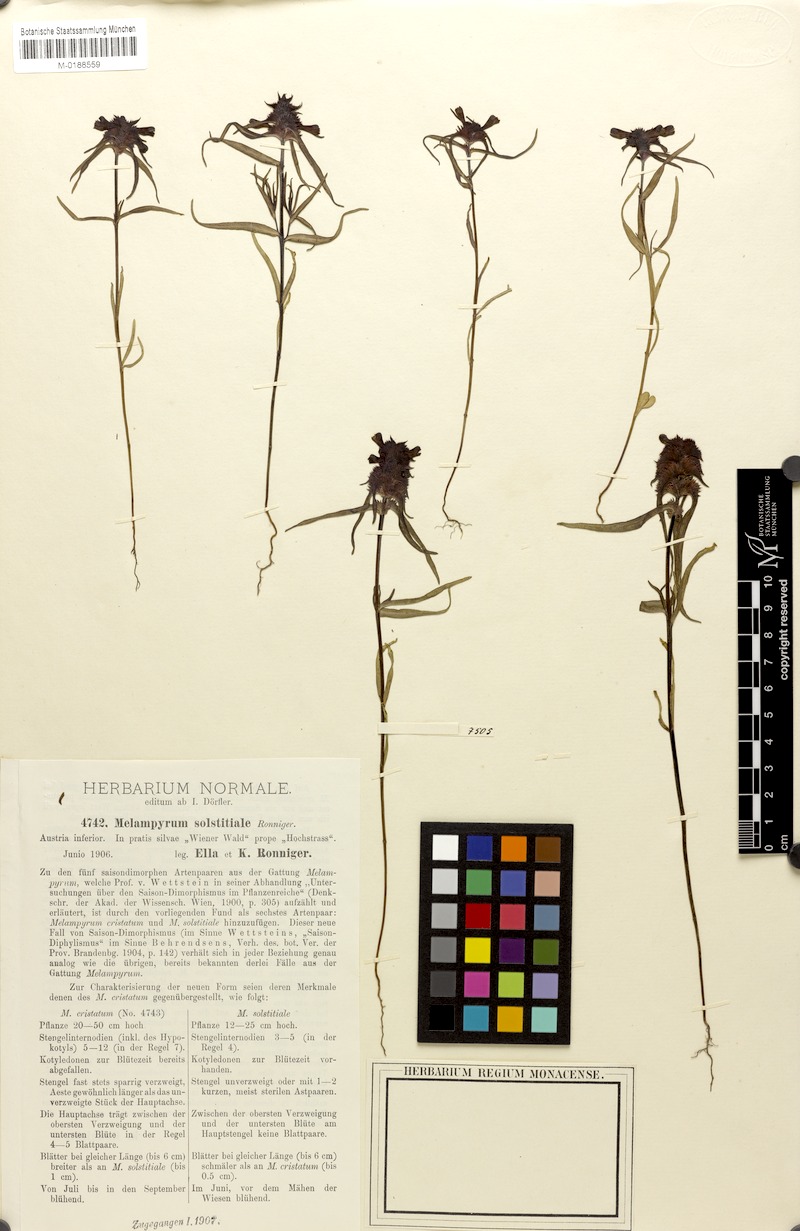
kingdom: Plantae
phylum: Tracheophyta
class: Magnoliopsida
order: Lamiales
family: Orobanchaceae
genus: Melampyrum
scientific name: Melampyrum cristatum
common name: Crested cow-wheat
